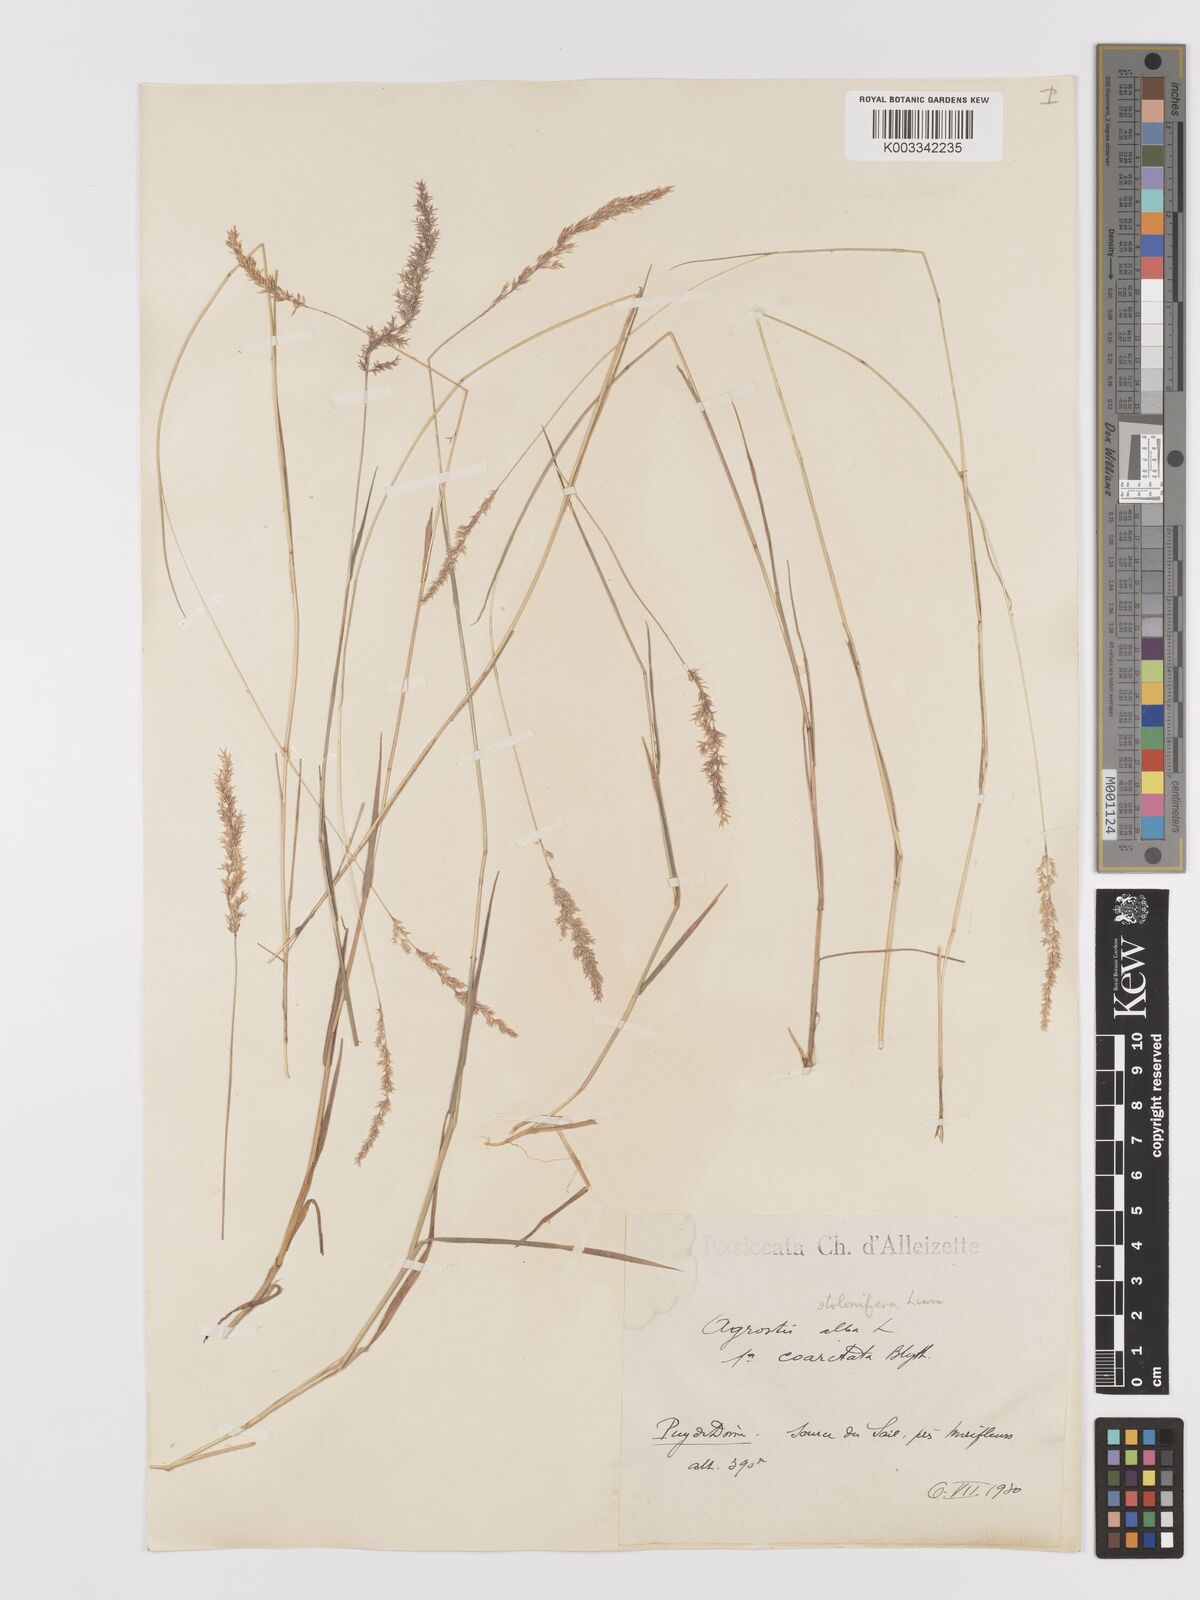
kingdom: Plantae
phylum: Tracheophyta
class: Liliopsida
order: Poales
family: Poaceae
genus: Agrostis
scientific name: Agrostis stolonifera
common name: Creeping bentgrass
